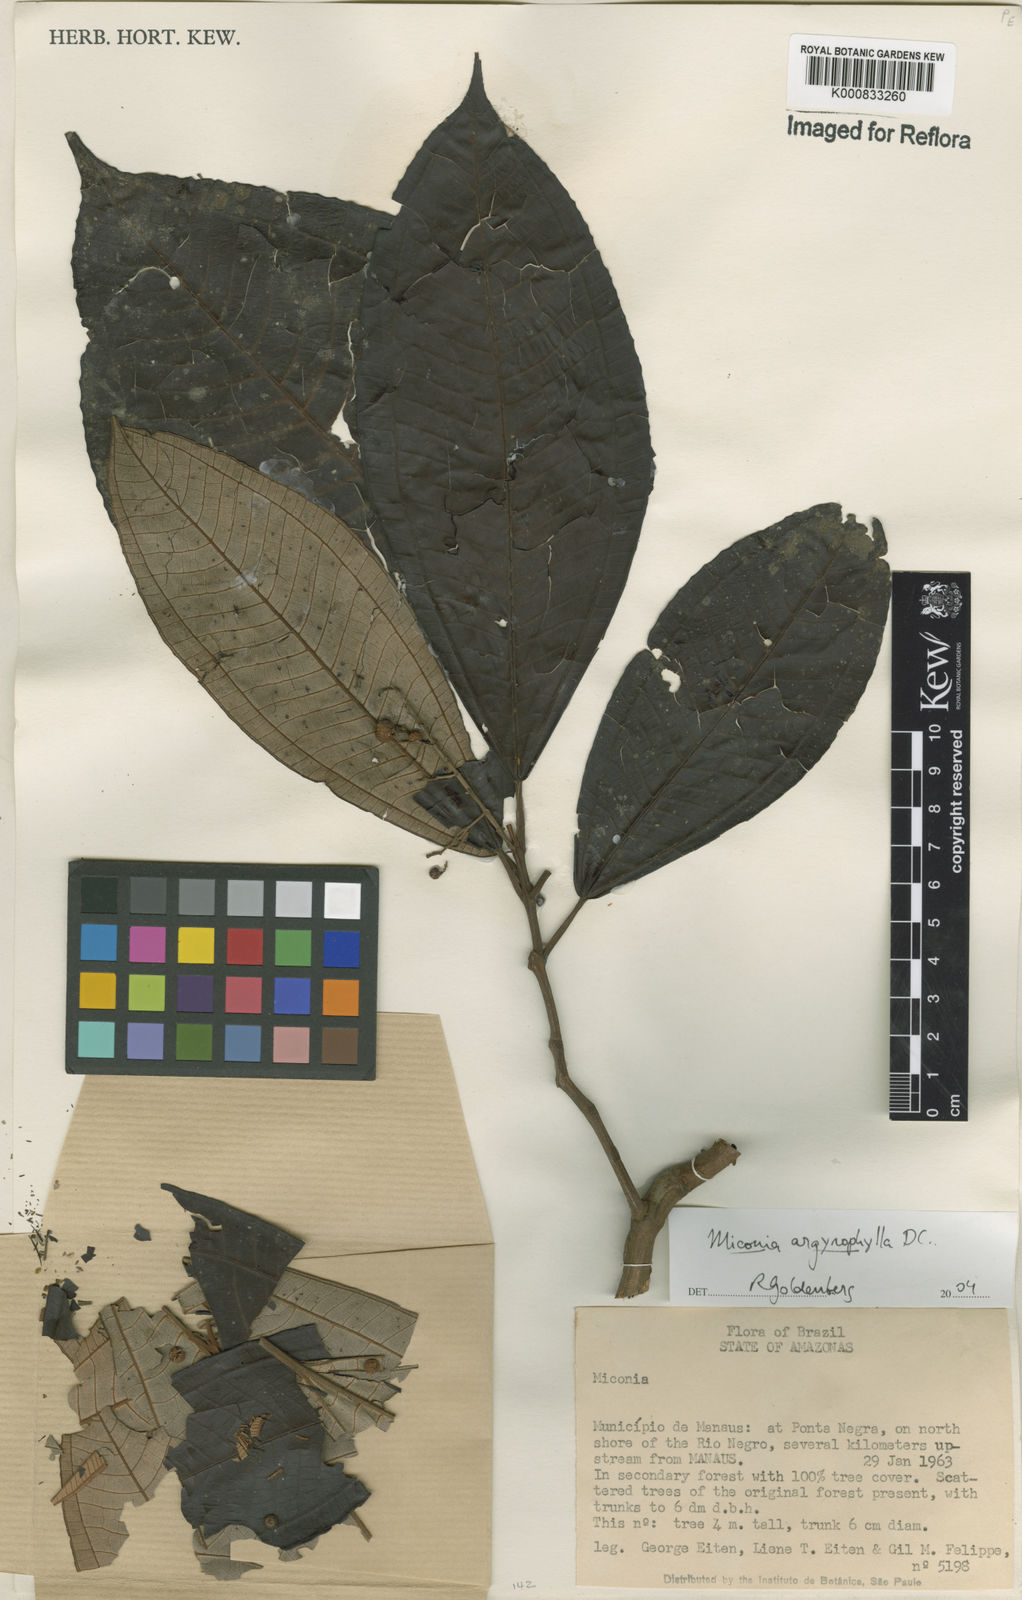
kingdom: Plantae
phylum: Tracheophyta
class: Magnoliopsida
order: Myrtales
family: Melastomataceae
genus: Miconia
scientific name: Miconia argyrophylla
